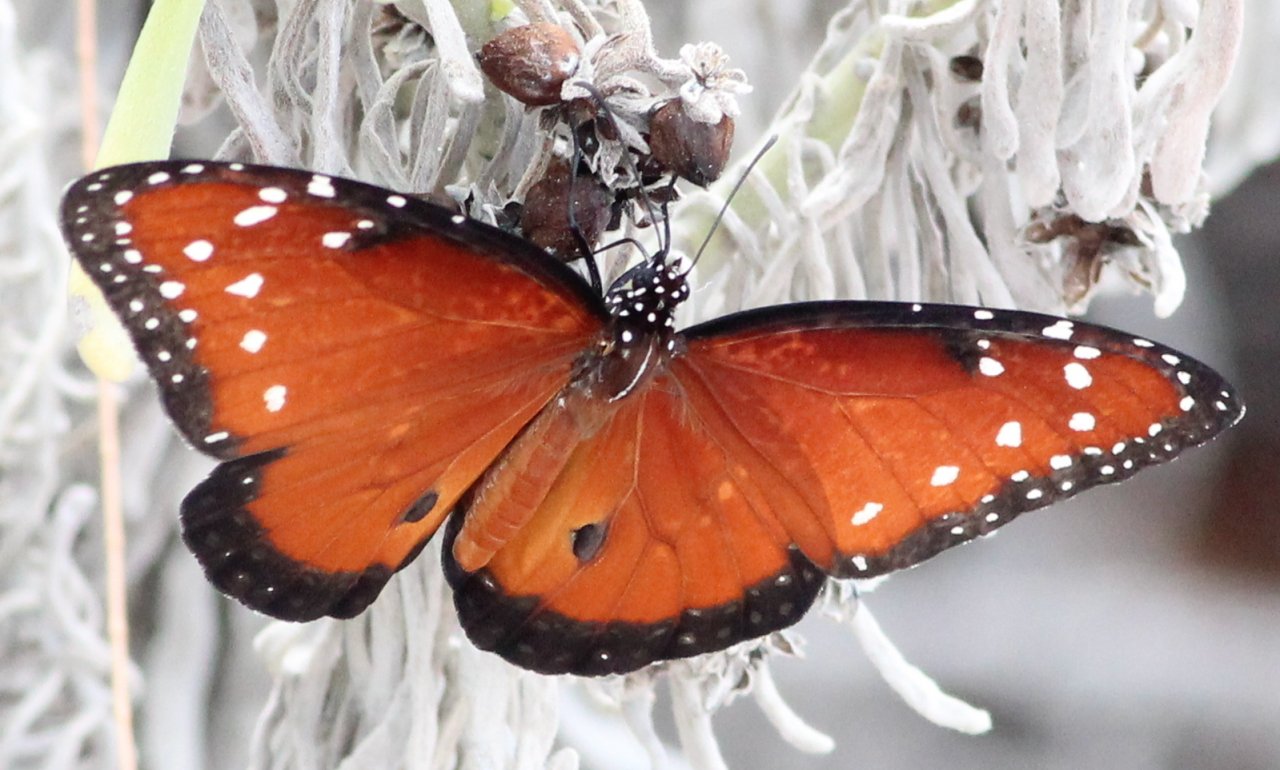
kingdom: Animalia
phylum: Arthropoda
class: Insecta
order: Lepidoptera
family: Nymphalidae
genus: Danaus
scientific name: Danaus gilippus
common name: Queen
